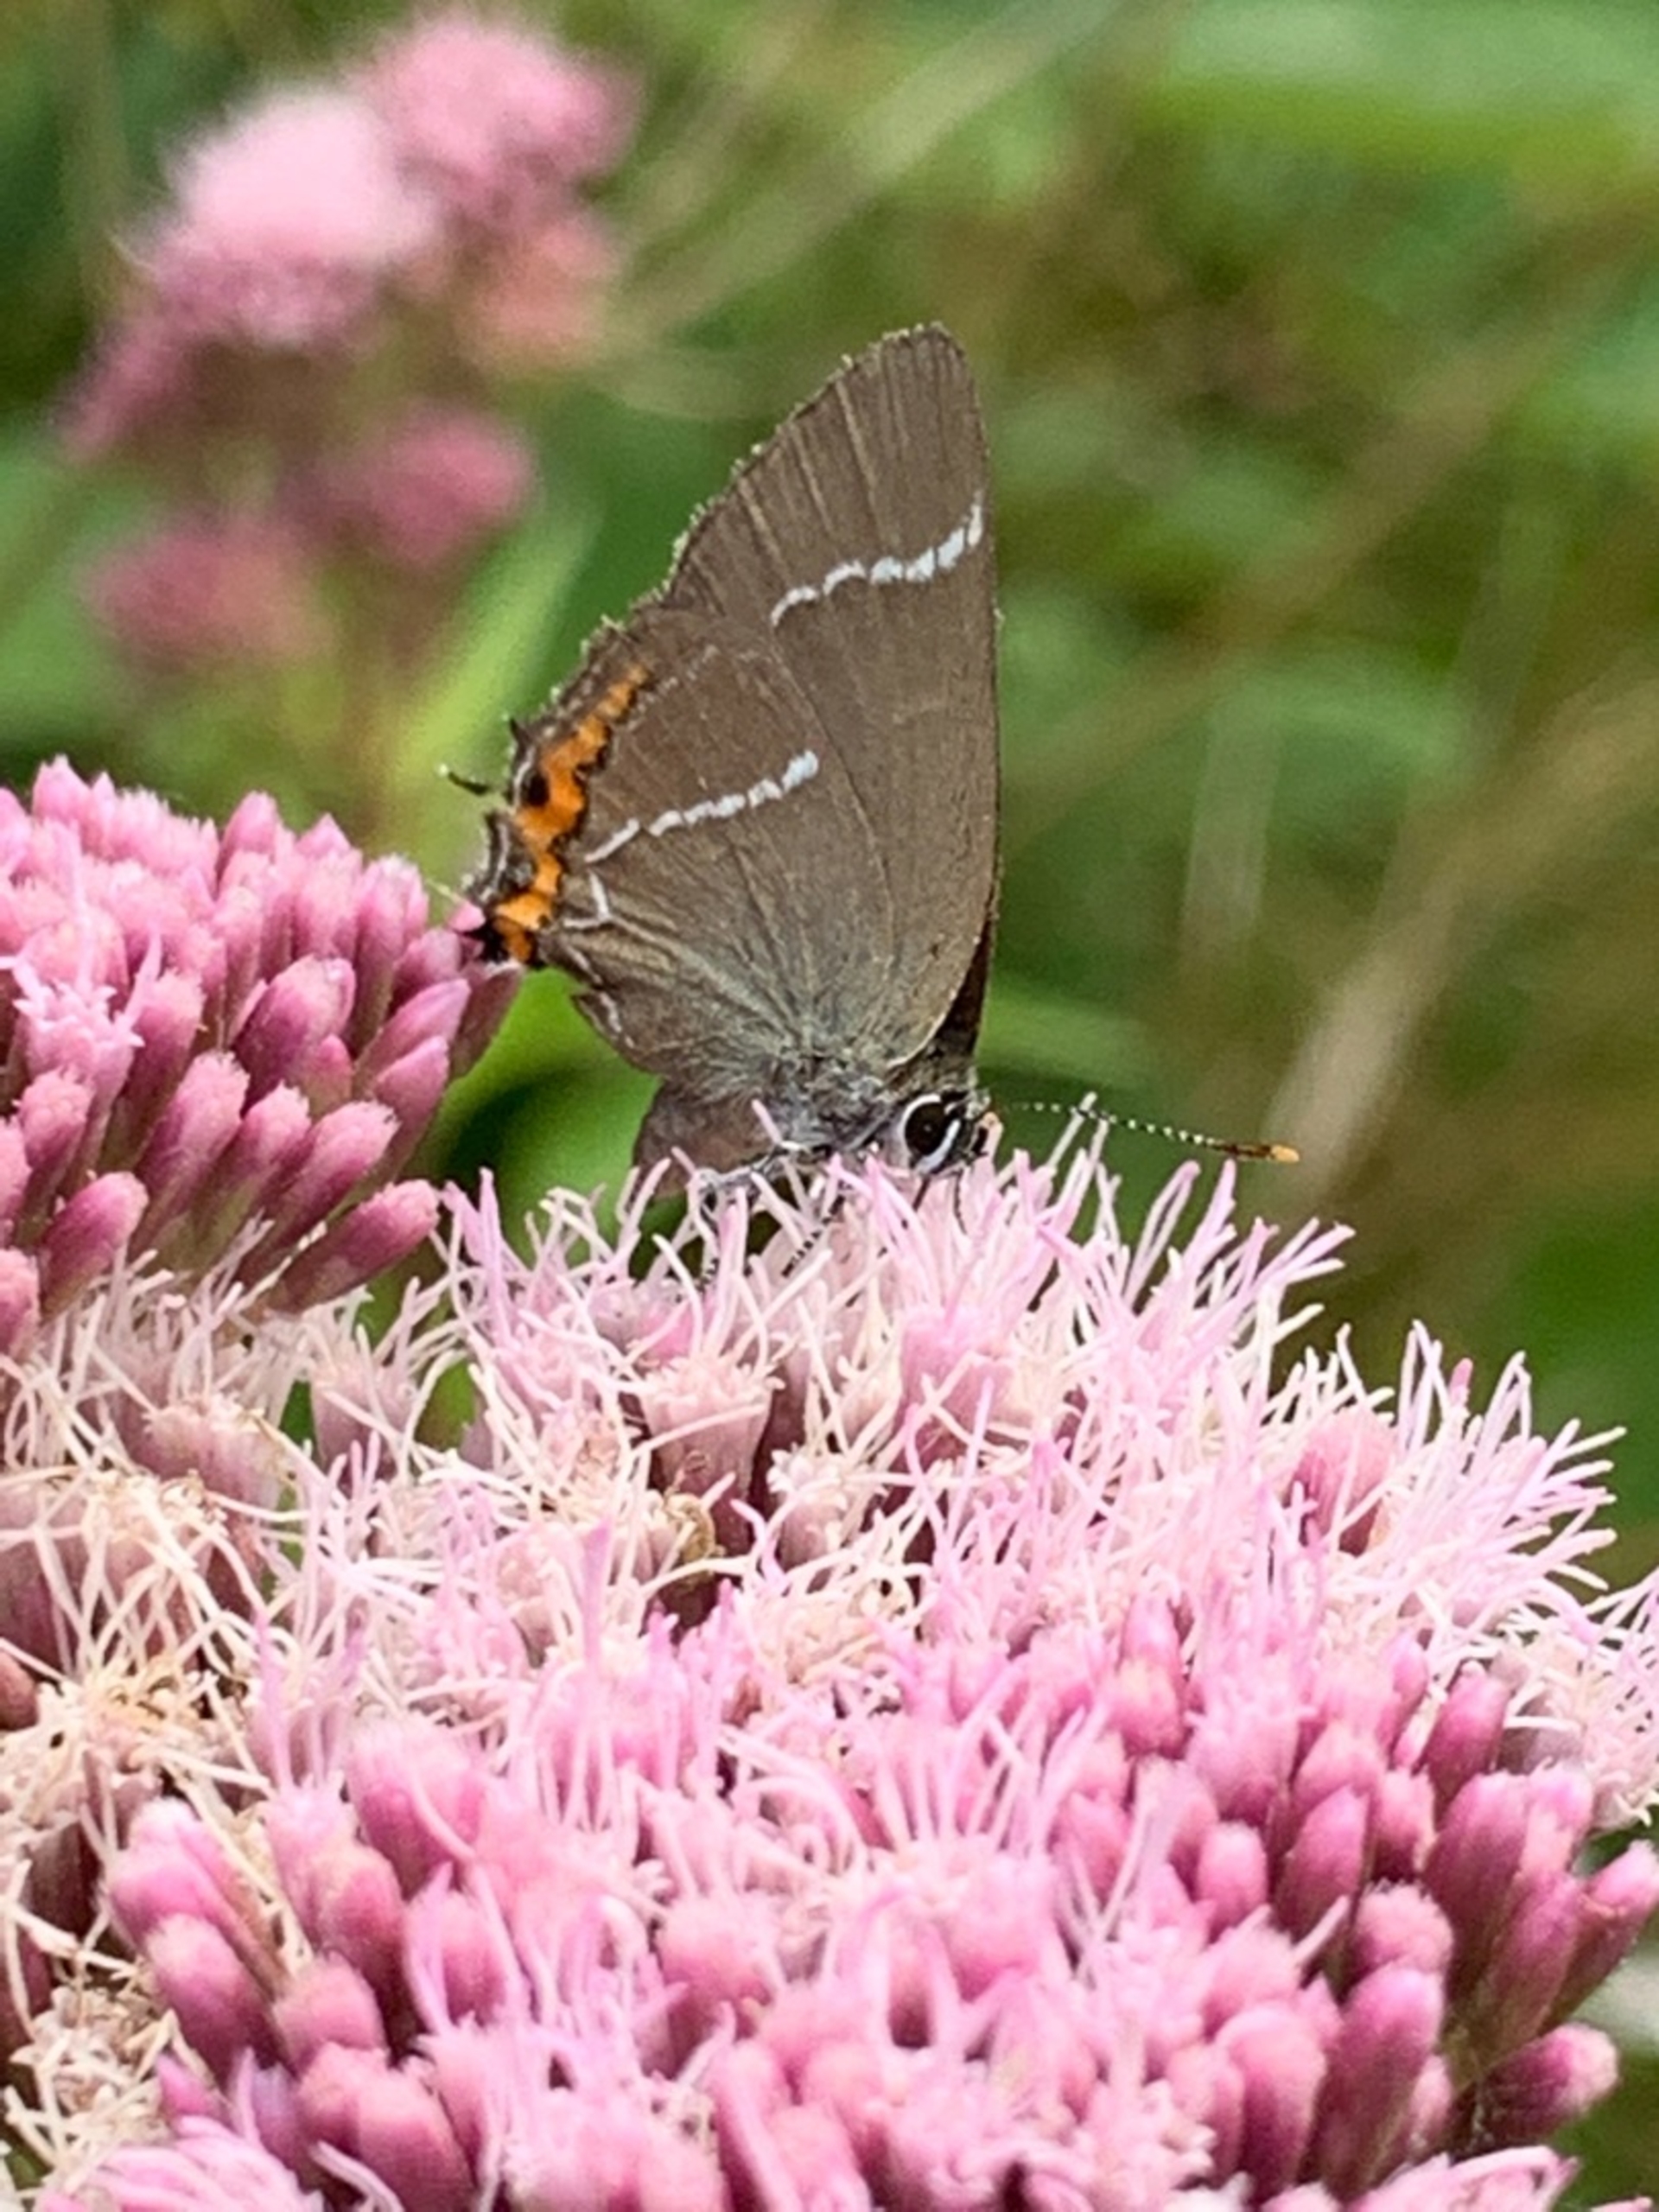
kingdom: Animalia
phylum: Arthropoda
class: Insecta
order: Lepidoptera
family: Lycaenidae
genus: Satyrium
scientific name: Satyrium w-album
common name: Det hvide W
